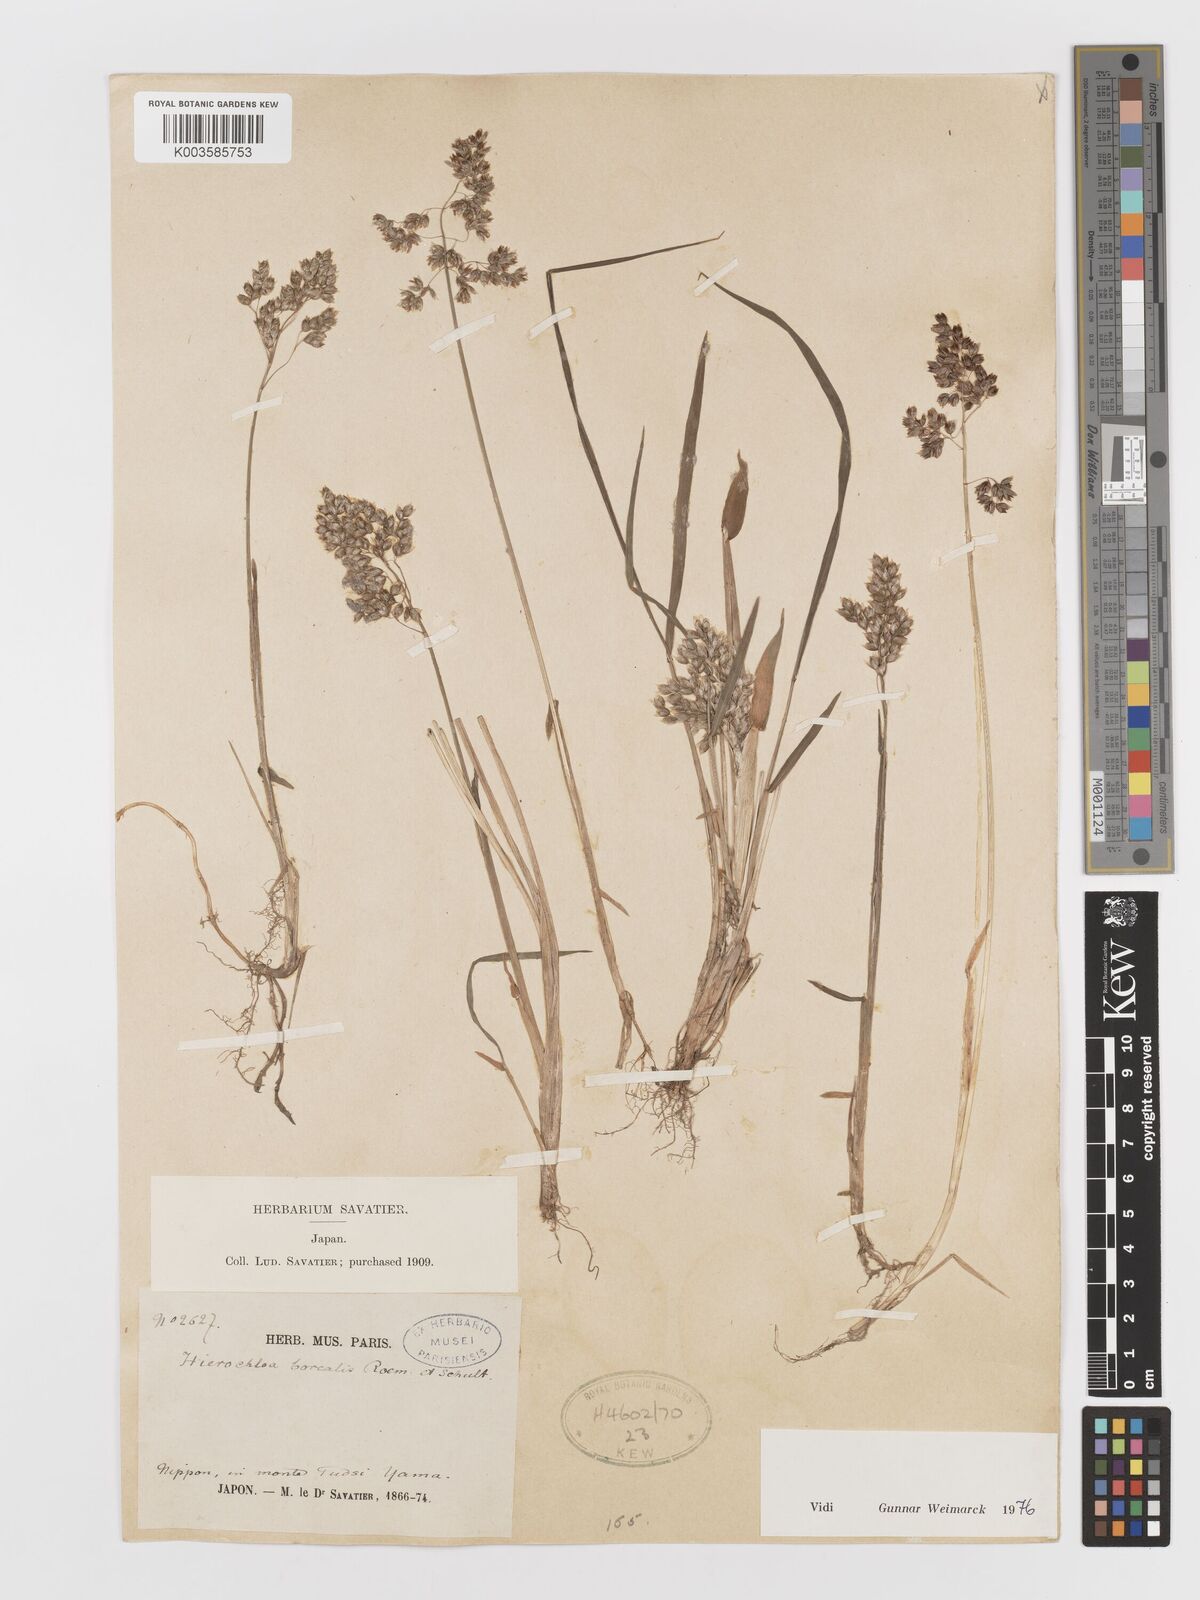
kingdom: Plantae
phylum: Tracheophyta
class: Liliopsida
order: Poales
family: Poaceae
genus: Anthoxanthum
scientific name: Anthoxanthum nitens
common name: Holy grass
